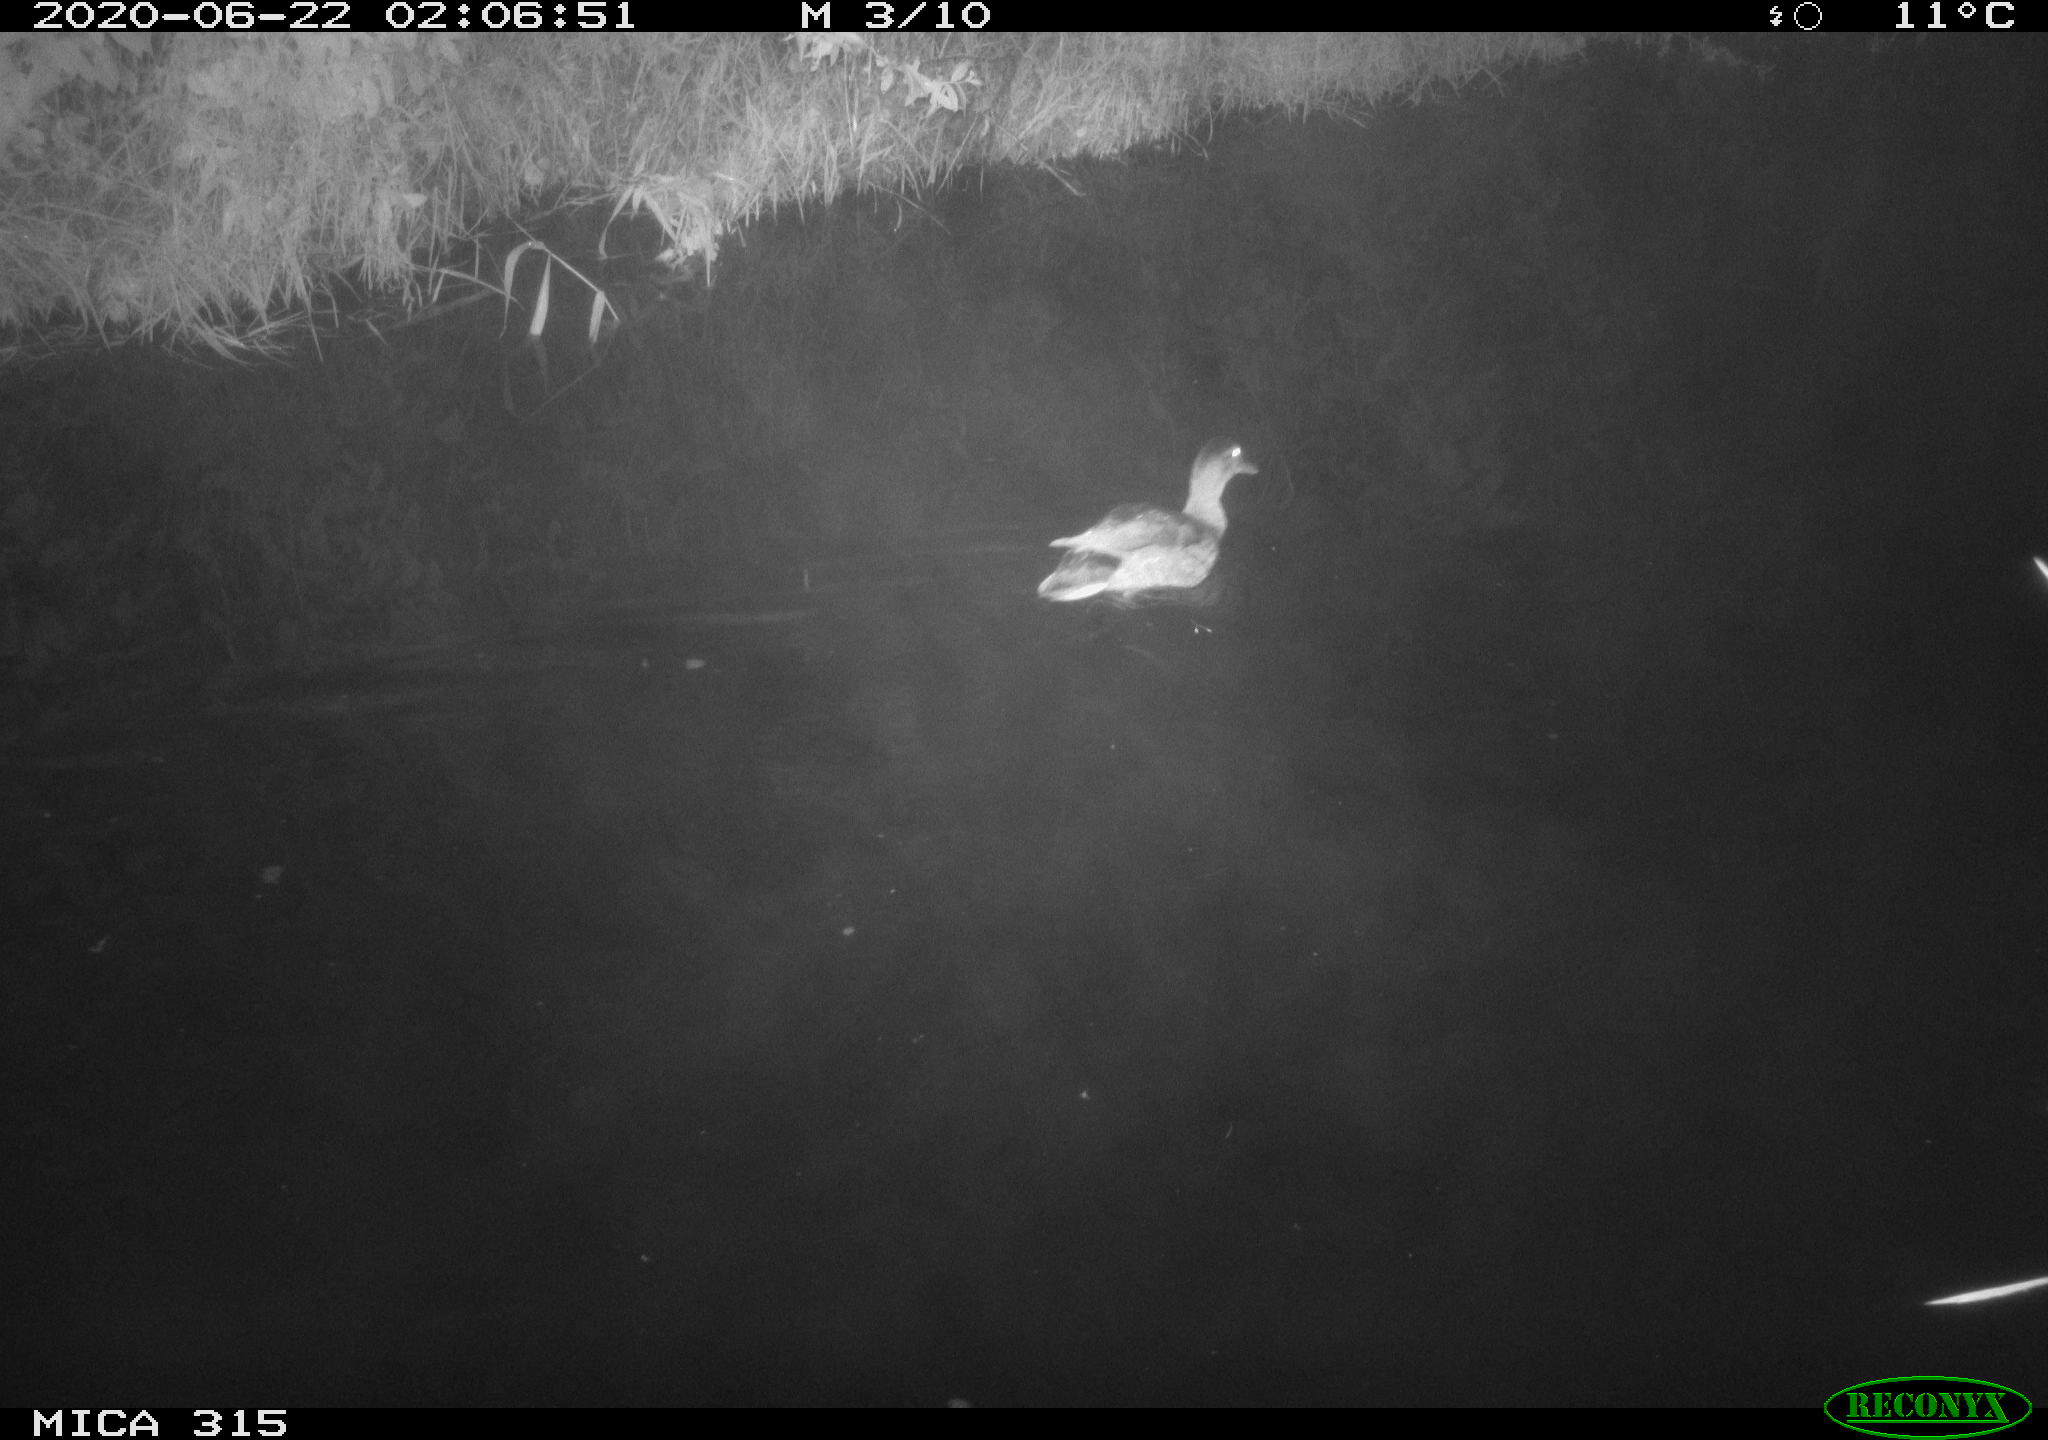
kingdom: Animalia
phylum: Chordata
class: Aves
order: Anseriformes
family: Anatidae
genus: Anas
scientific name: Anas platyrhynchos
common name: Mallard
